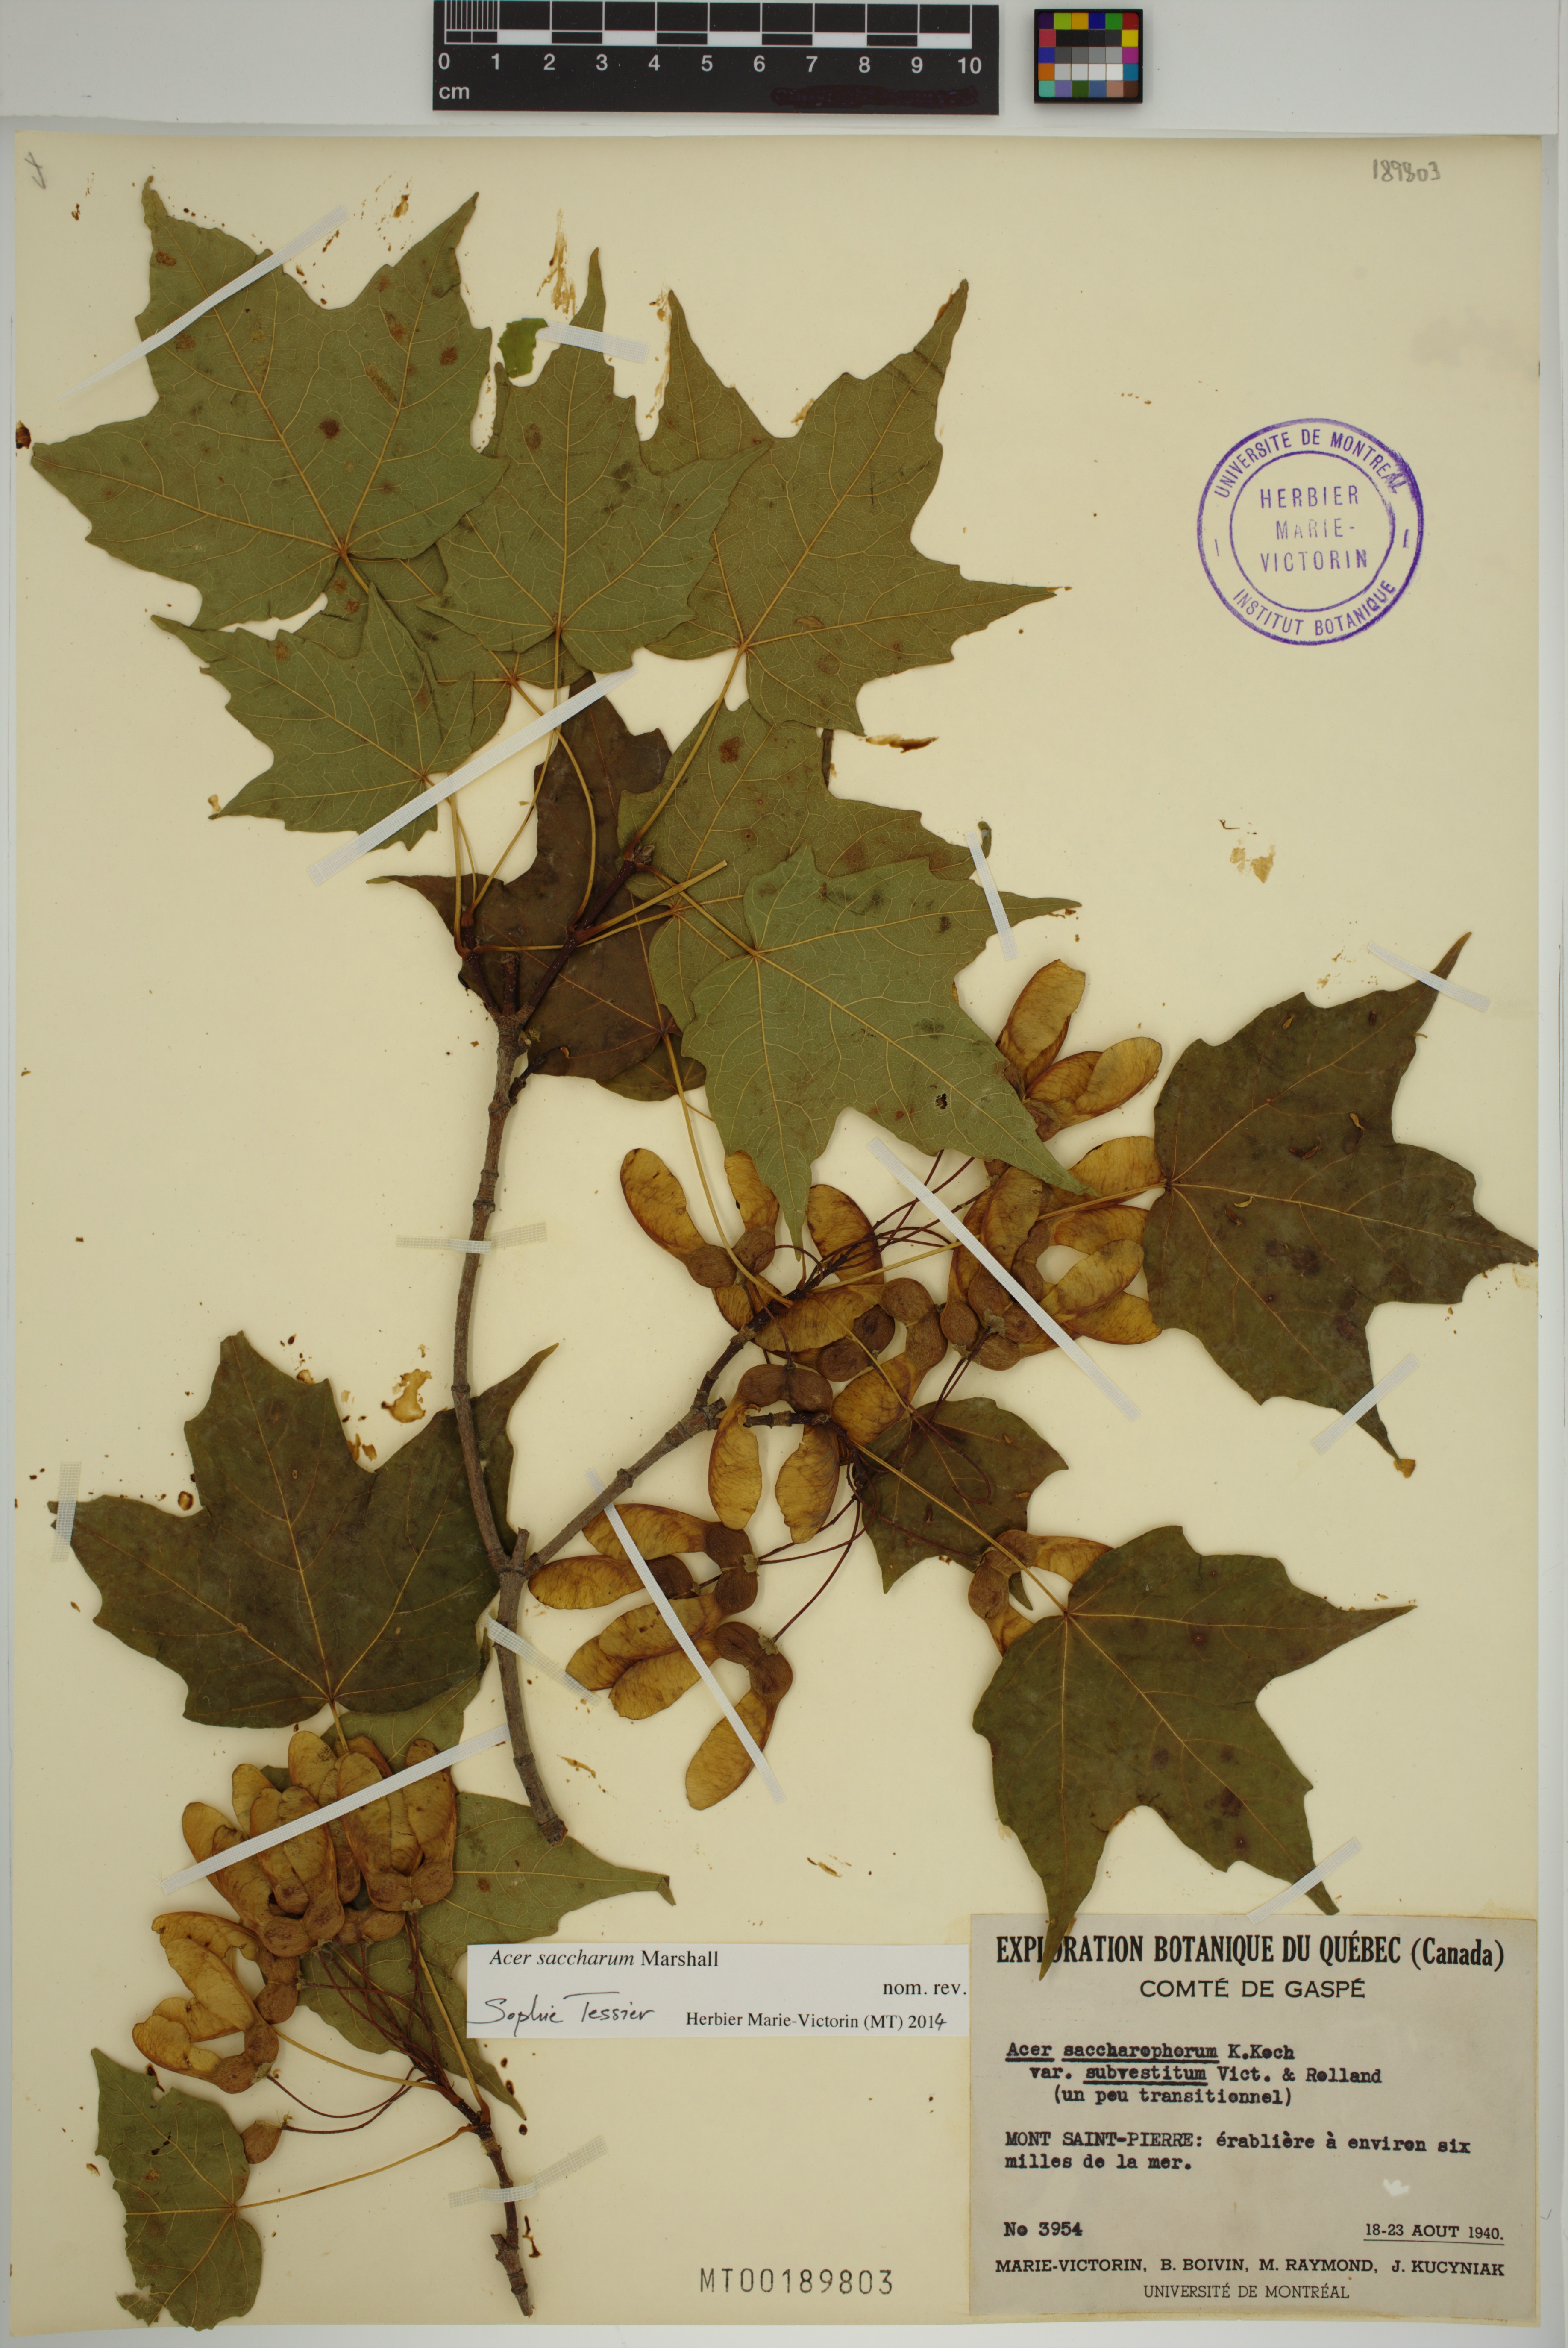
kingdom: Plantae
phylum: Tracheophyta
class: Magnoliopsida
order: Sapindales
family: Sapindaceae
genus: Acer
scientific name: Acer saccharum
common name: Sugar maple
